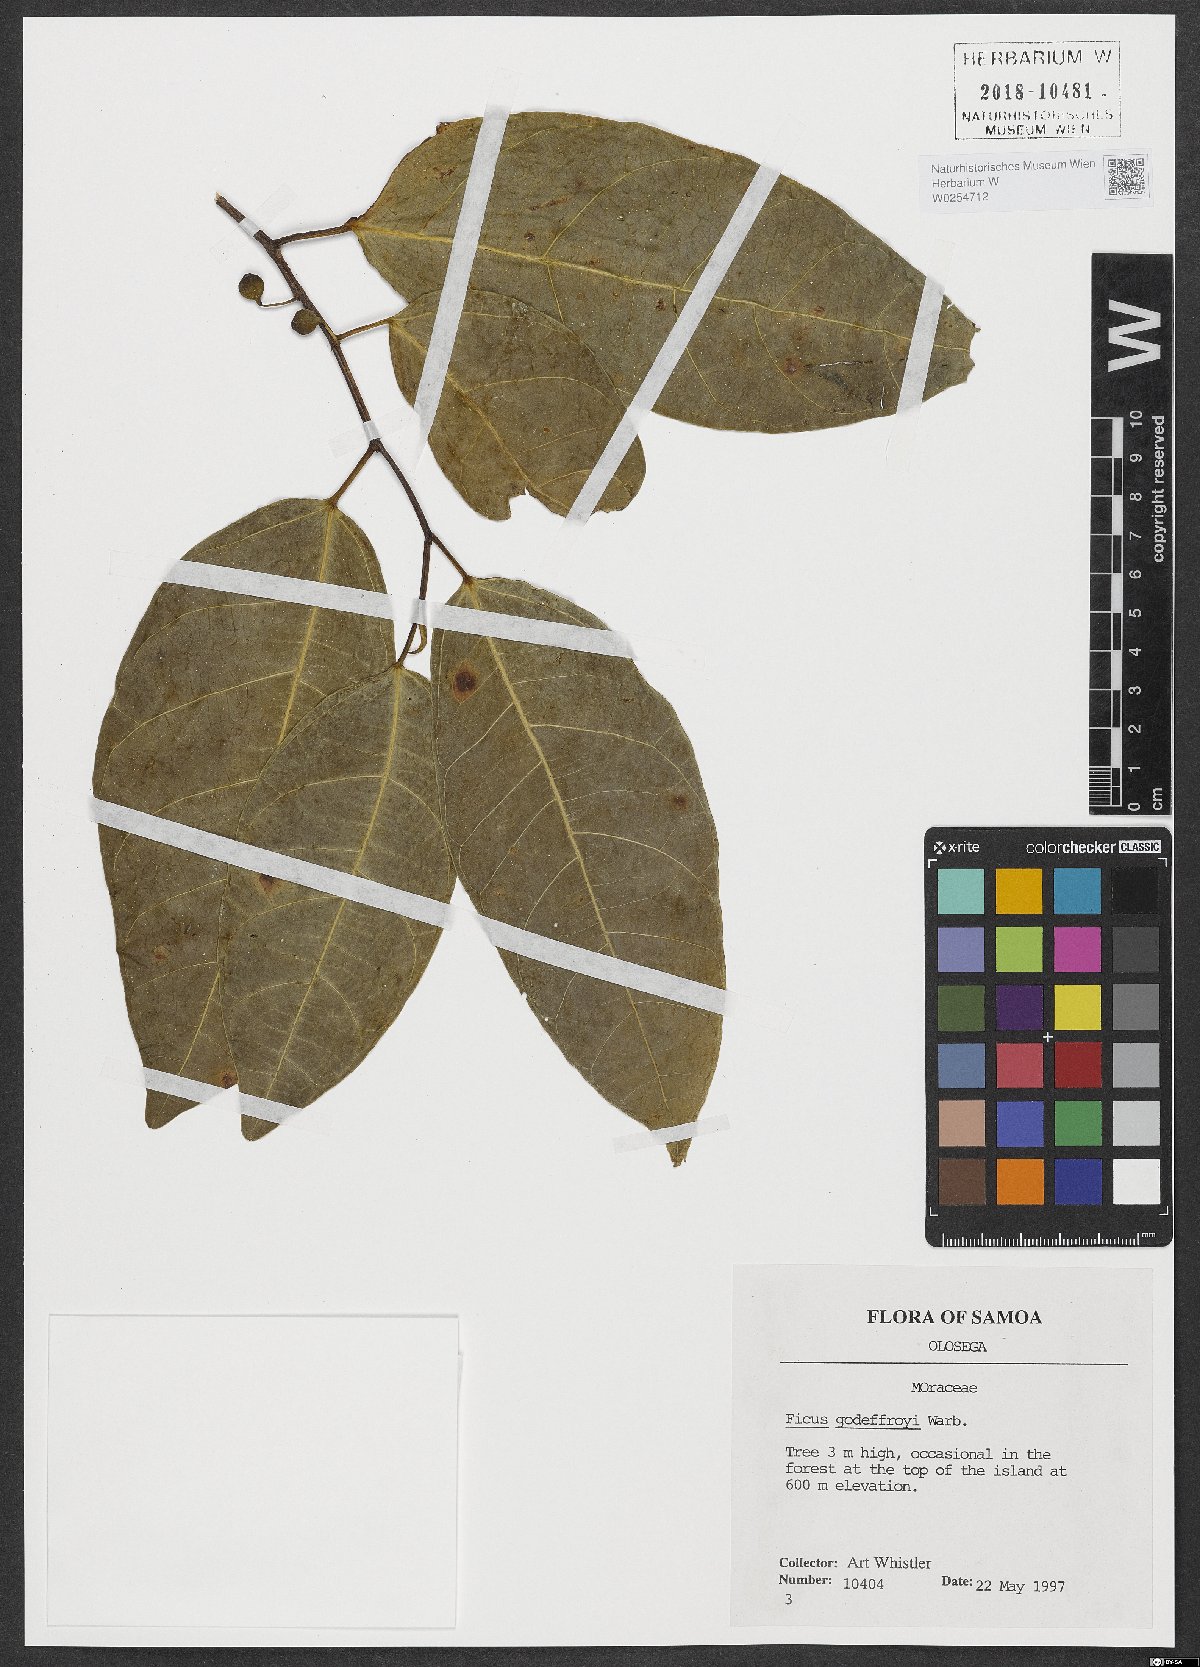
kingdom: Plantae
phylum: Tracheophyta
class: Magnoliopsida
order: Rosales
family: Moraceae
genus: Ficus
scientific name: Ficus godeffroyi
